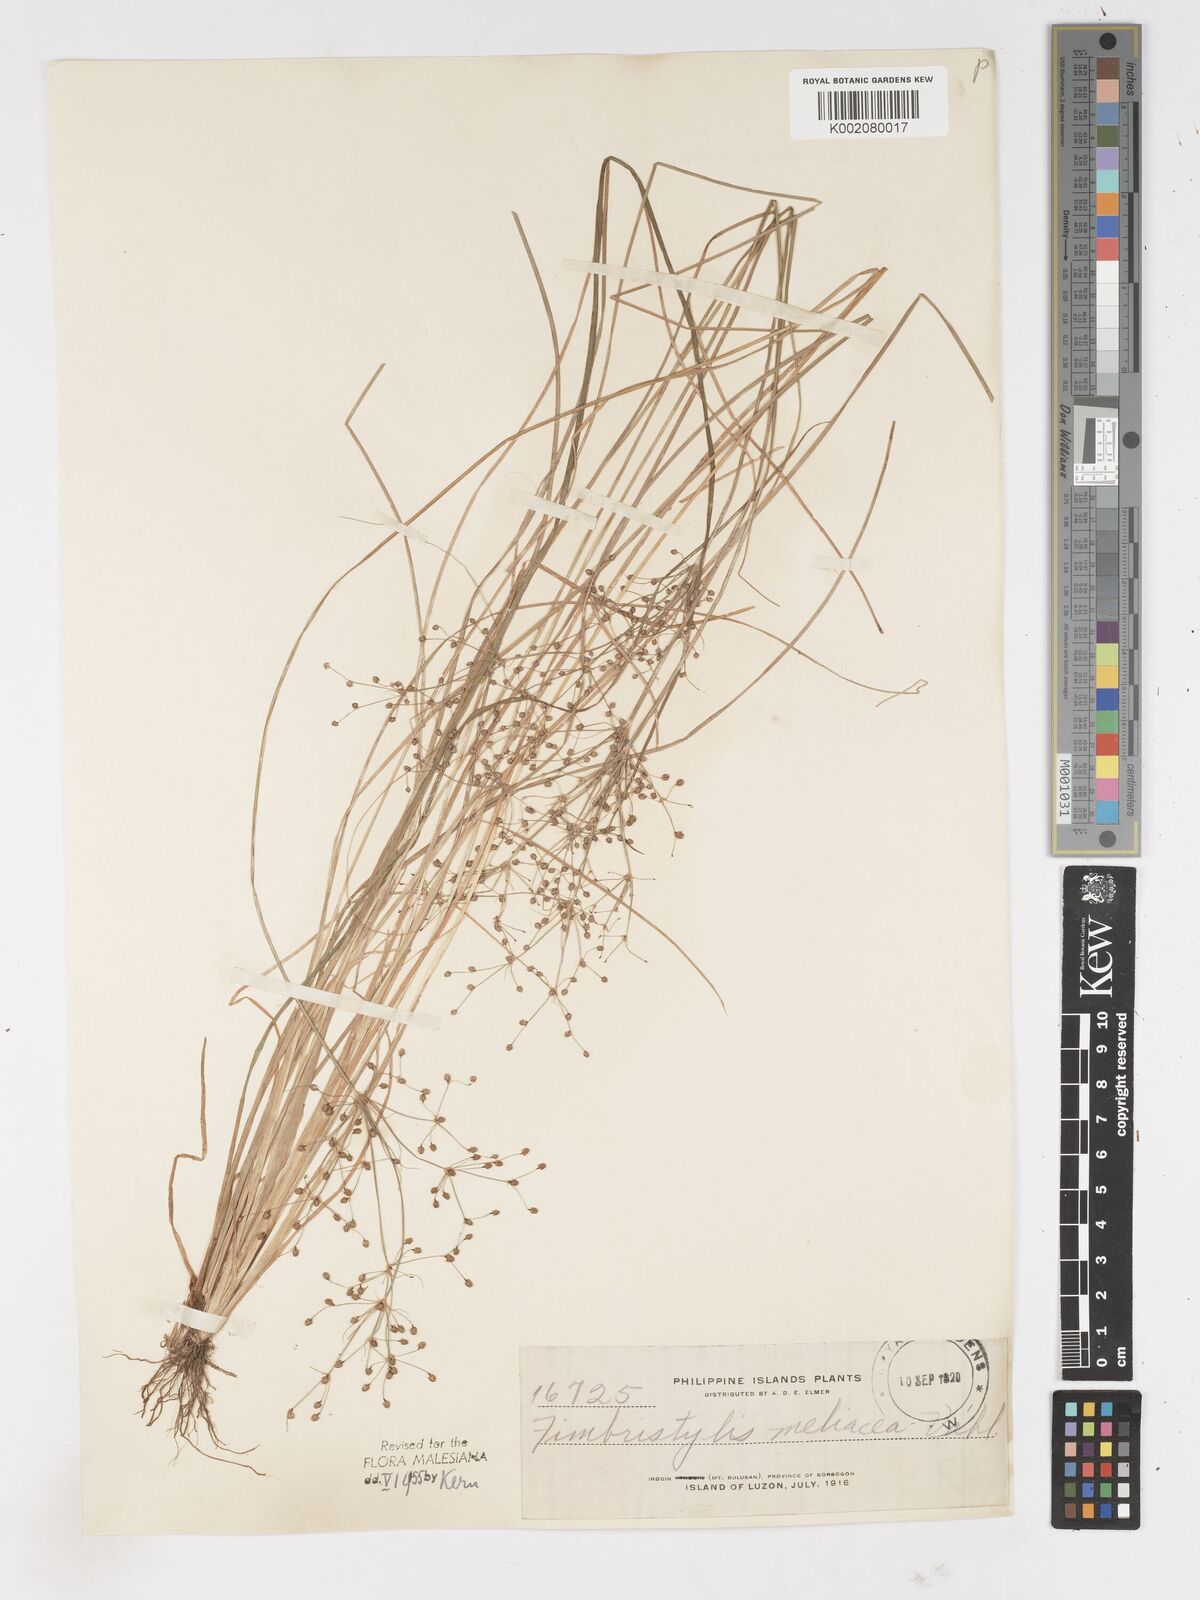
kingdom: Plantae
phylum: Tracheophyta
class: Liliopsida
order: Poales
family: Cyperaceae
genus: Fimbristylis
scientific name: Fimbristylis littoralis
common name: Fimbry
